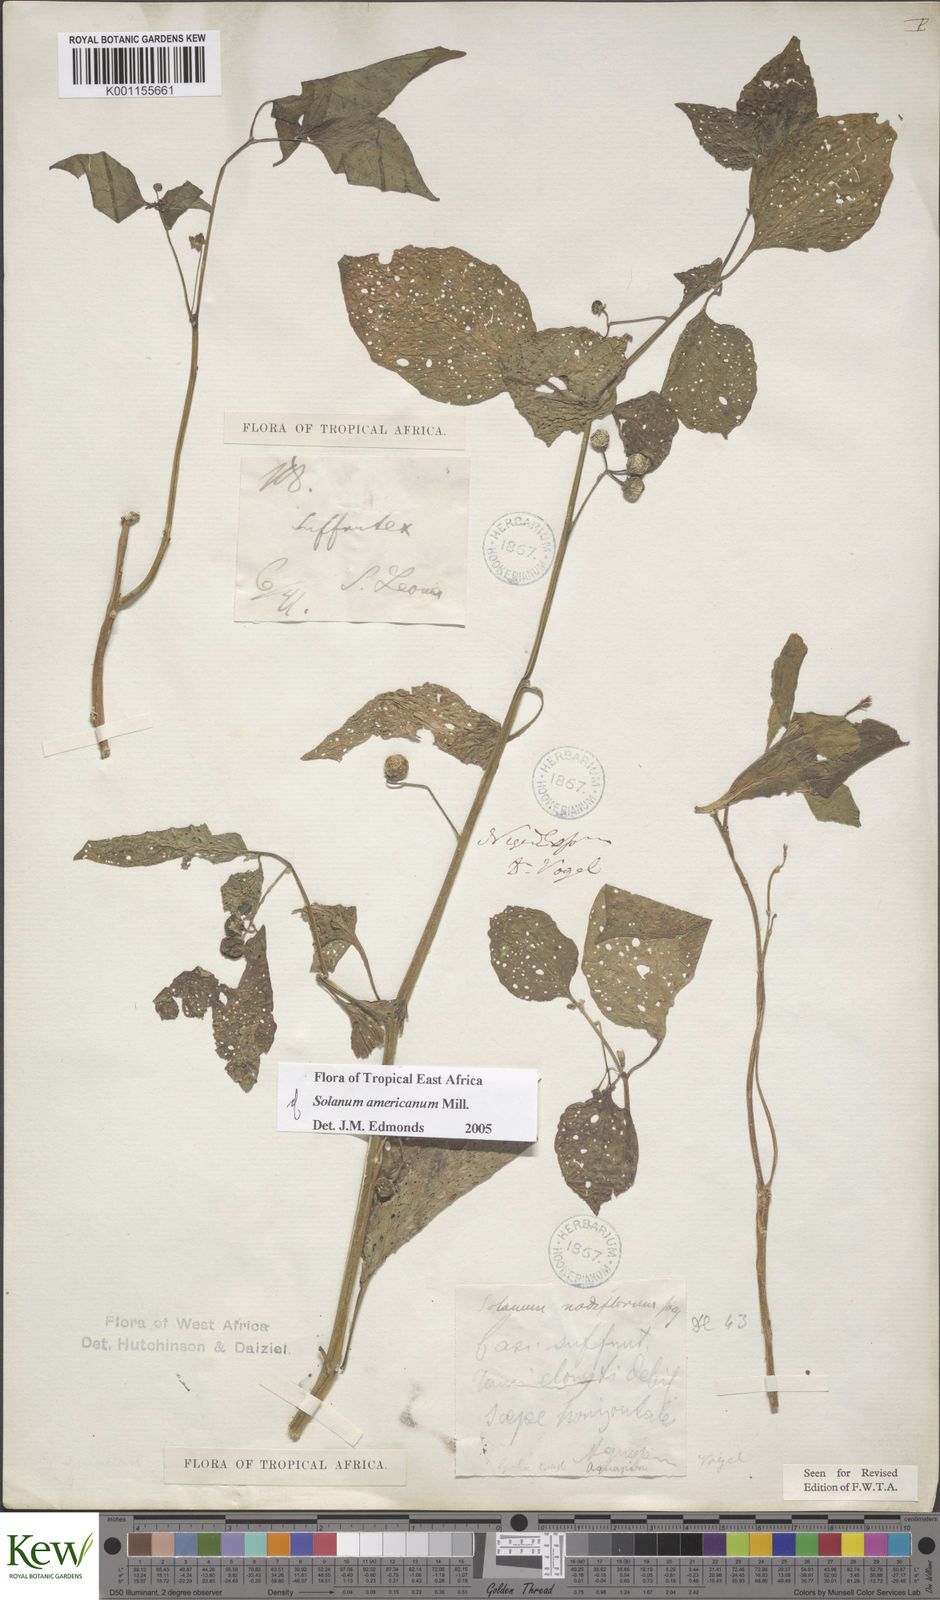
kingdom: Plantae
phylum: Tracheophyta
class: Magnoliopsida
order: Solanales
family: Solanaceae
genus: Capsicum
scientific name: Capsicum annuum
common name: Sweet pepper
